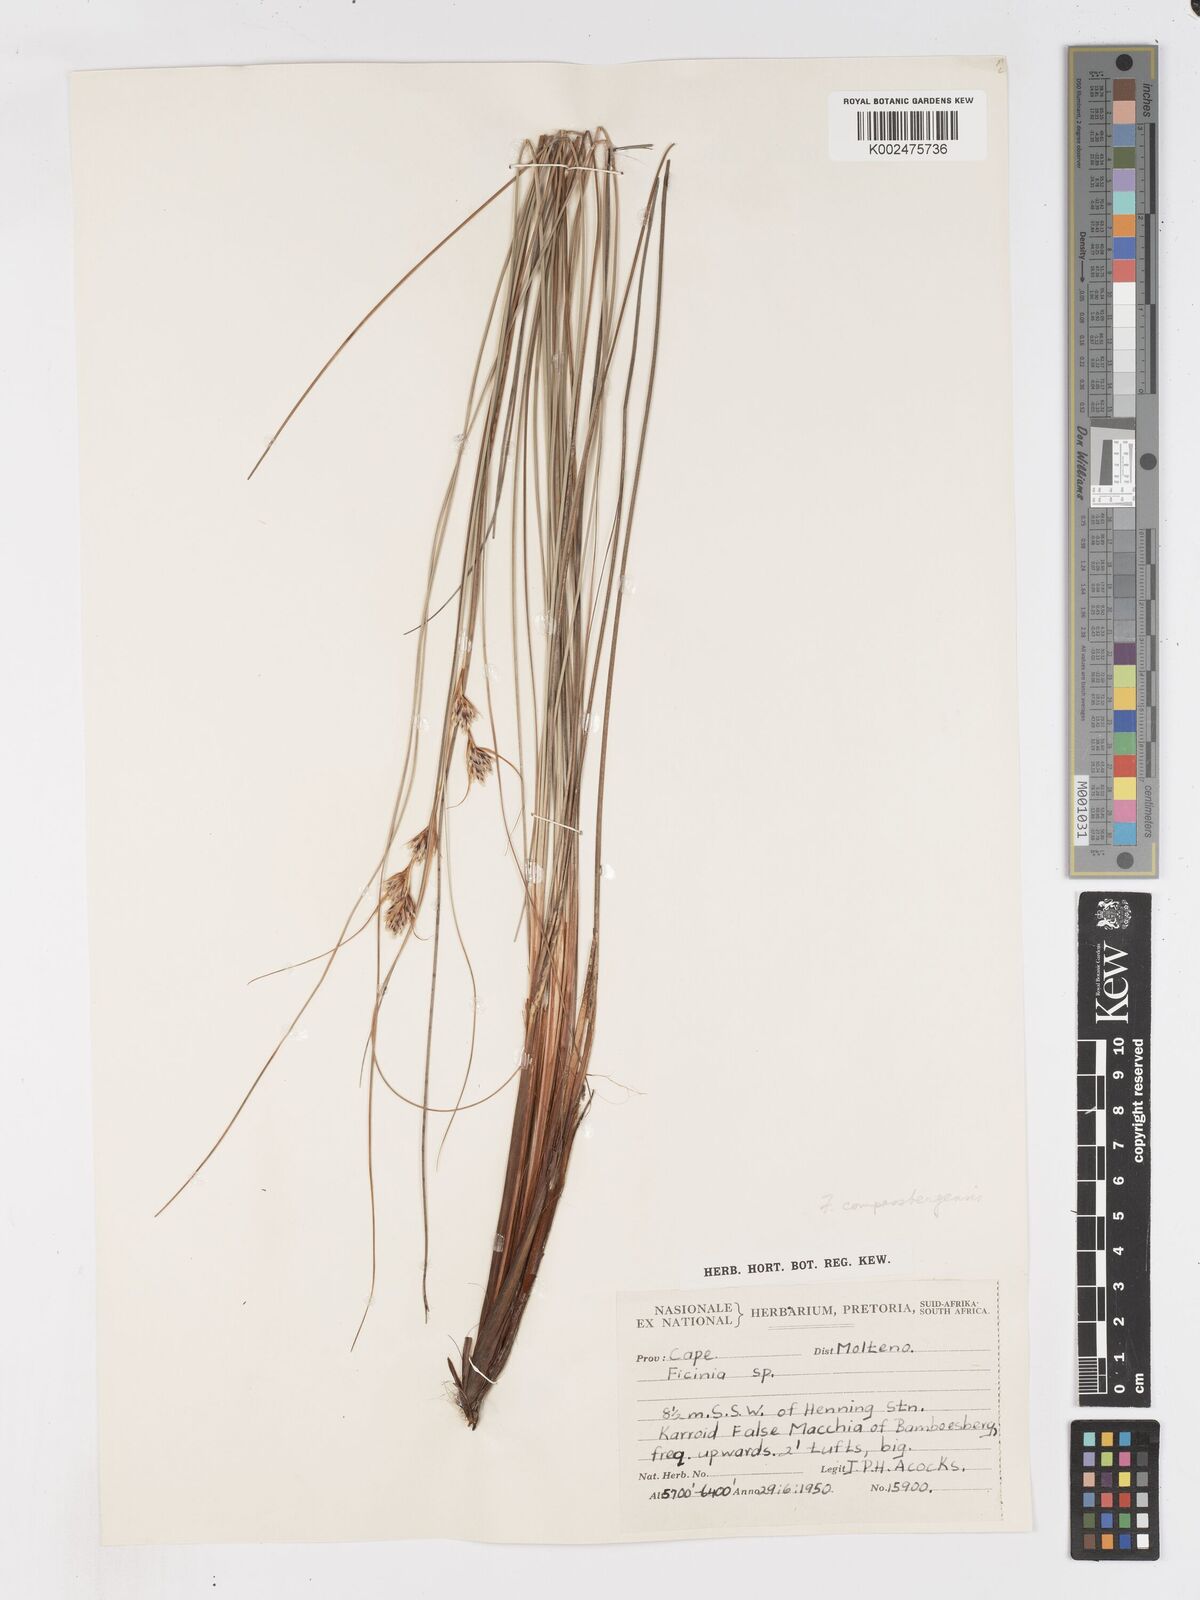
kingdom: Plantae
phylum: Tracheophyta
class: Liliopsida
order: Poales
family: Cyperaceae
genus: Ficinia
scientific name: Ficinia compasbergensis
